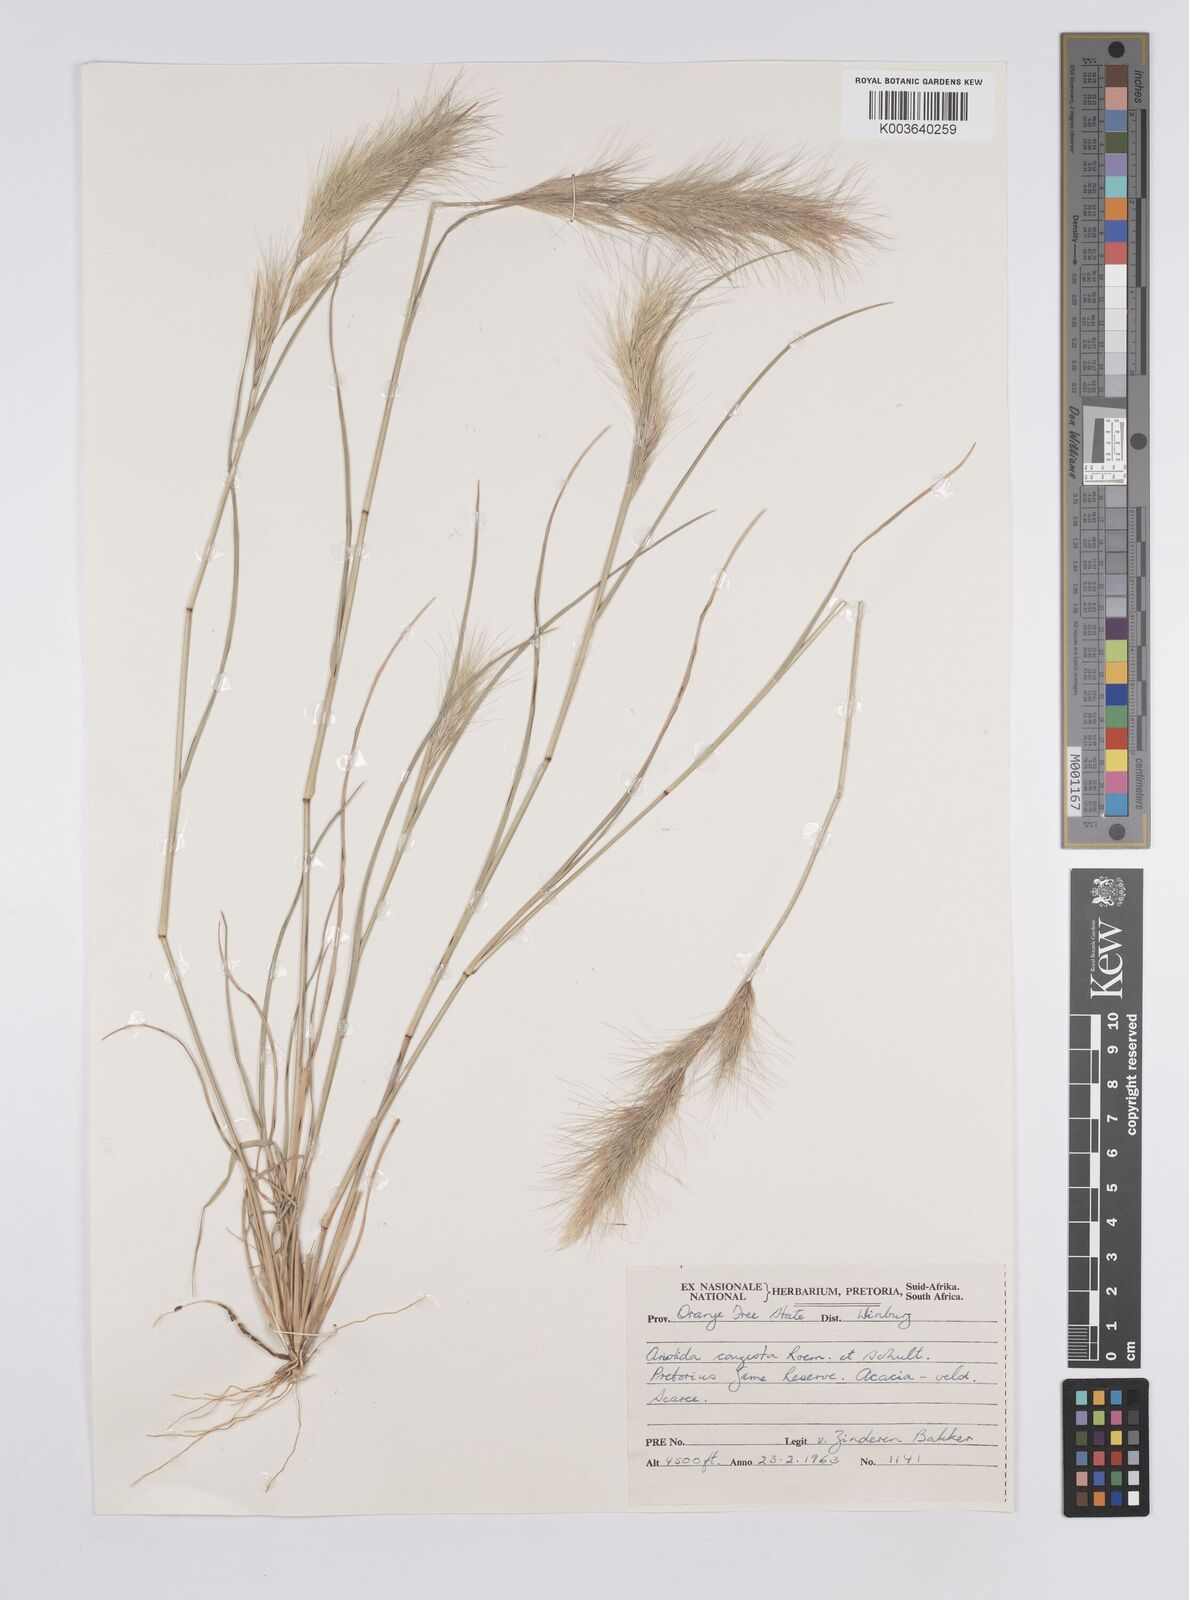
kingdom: Plantae
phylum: Tracheophyta
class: Liliopsida
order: Poales
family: Poaceae
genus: Aristida
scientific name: Aristida congesta
